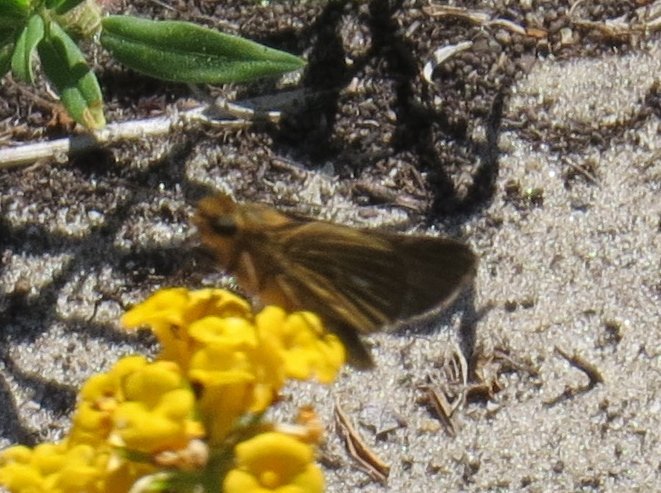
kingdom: Animalia
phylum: Arthropoda
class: Insecta
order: Lepidoptera
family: Hesperiidae
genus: Panoquina
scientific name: Panoquina panoquin
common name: Salt Marsh Skipper
